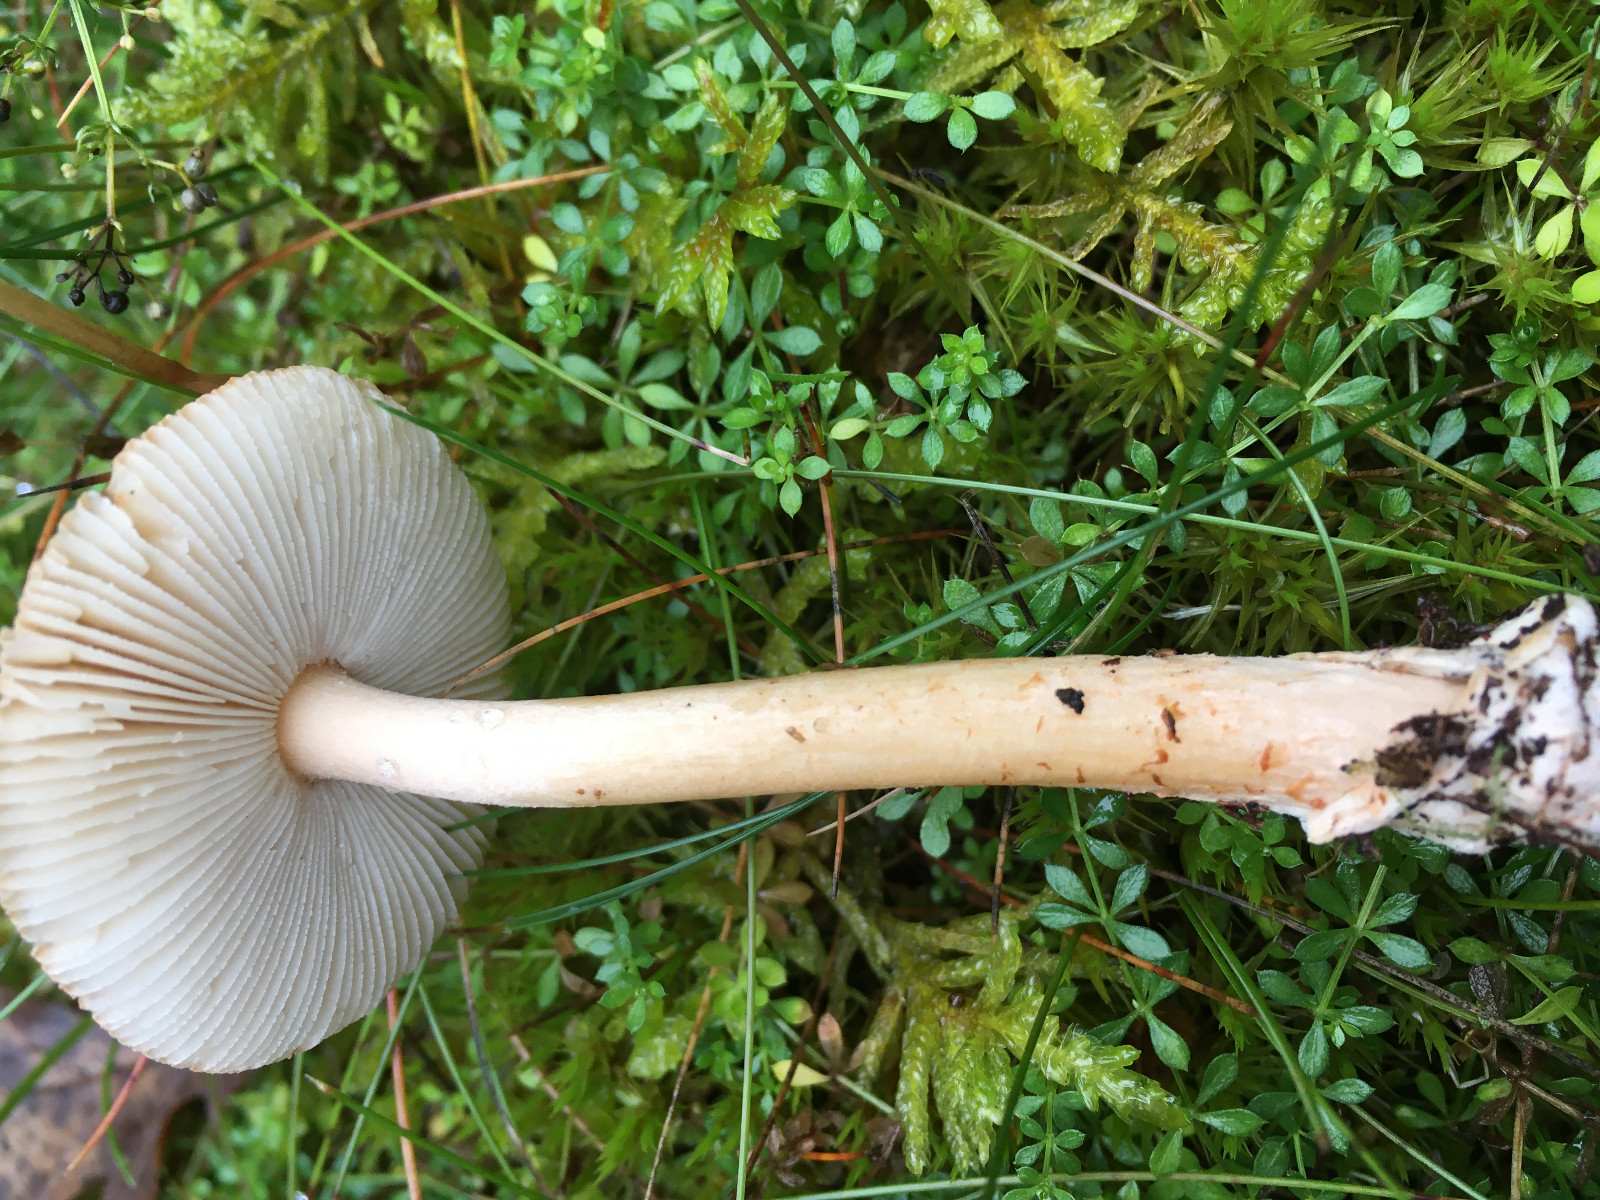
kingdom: Fungi
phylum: Basidiomycota
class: Agaricomycetes
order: Agaricales
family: Amanitaceae
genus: Amanita
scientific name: Amanita fulva
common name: brun kam-fluesvamp
